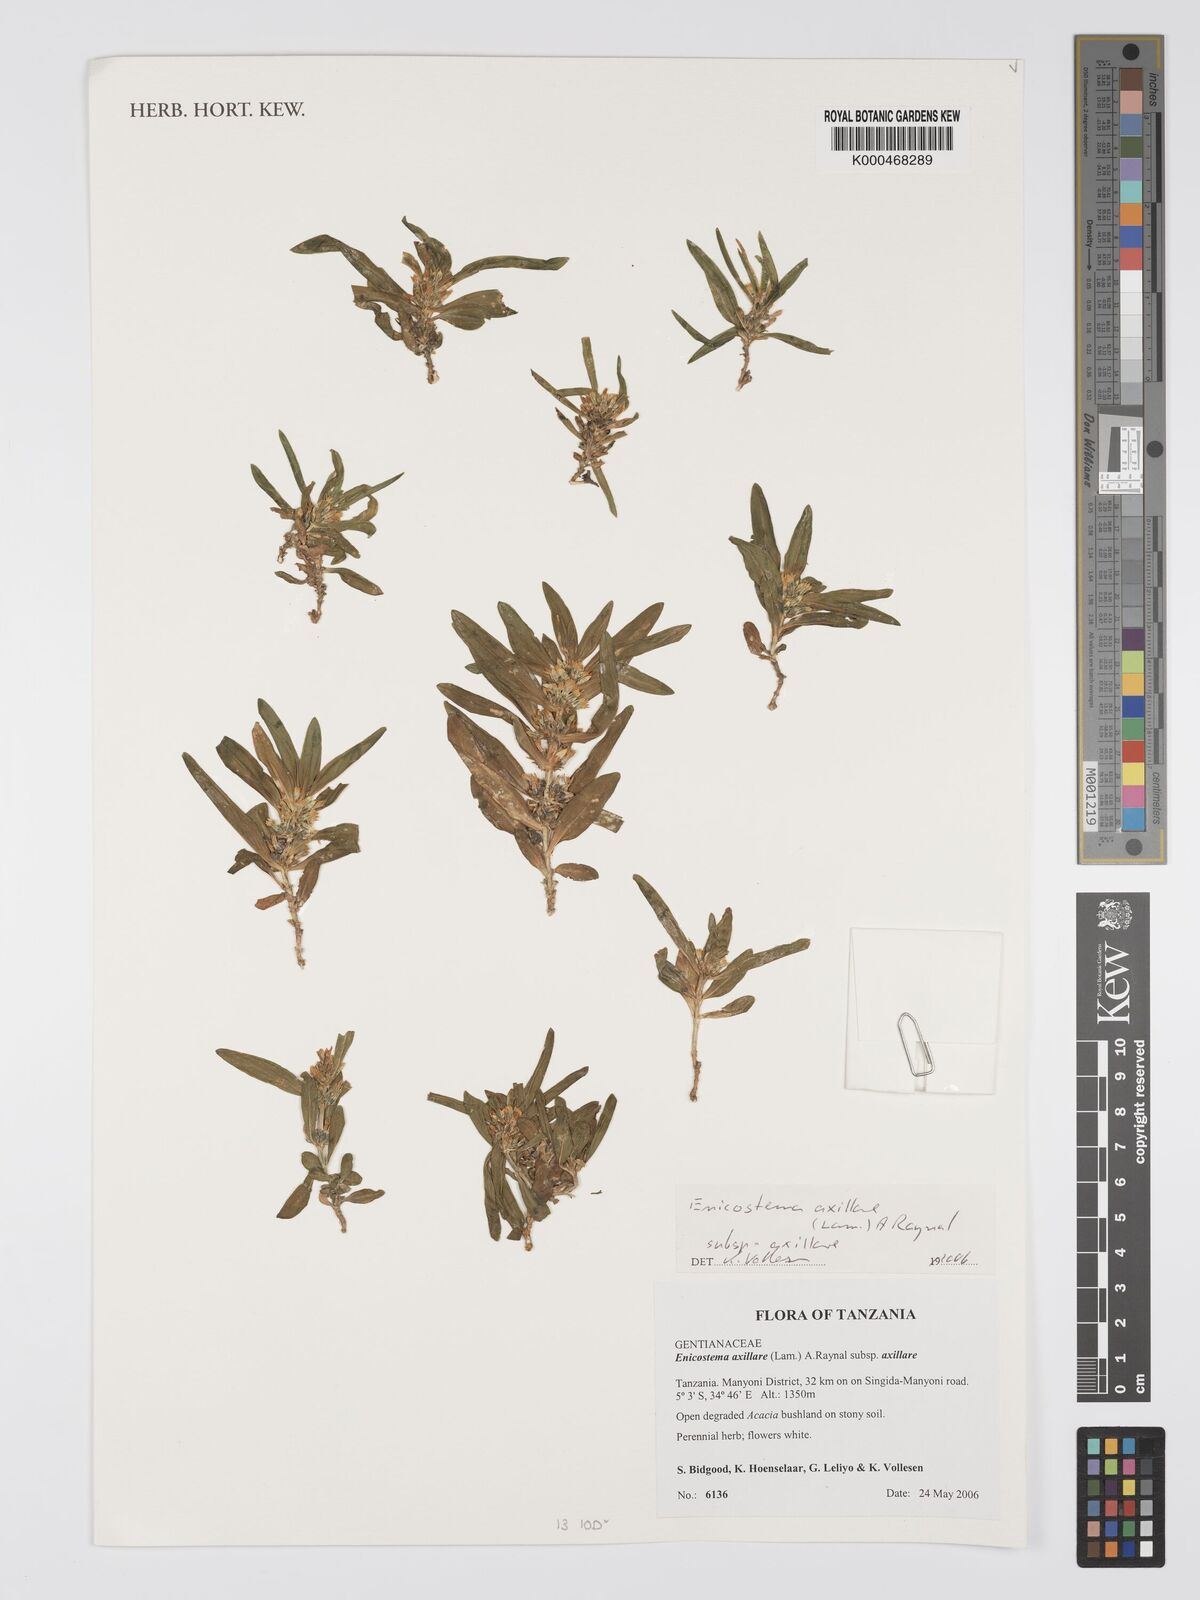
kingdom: Plantae
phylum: Tracheophyta
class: Magnoliopsida
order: Gentianales
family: Gentianaceae
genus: Enicostema
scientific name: Enicostema axillare
